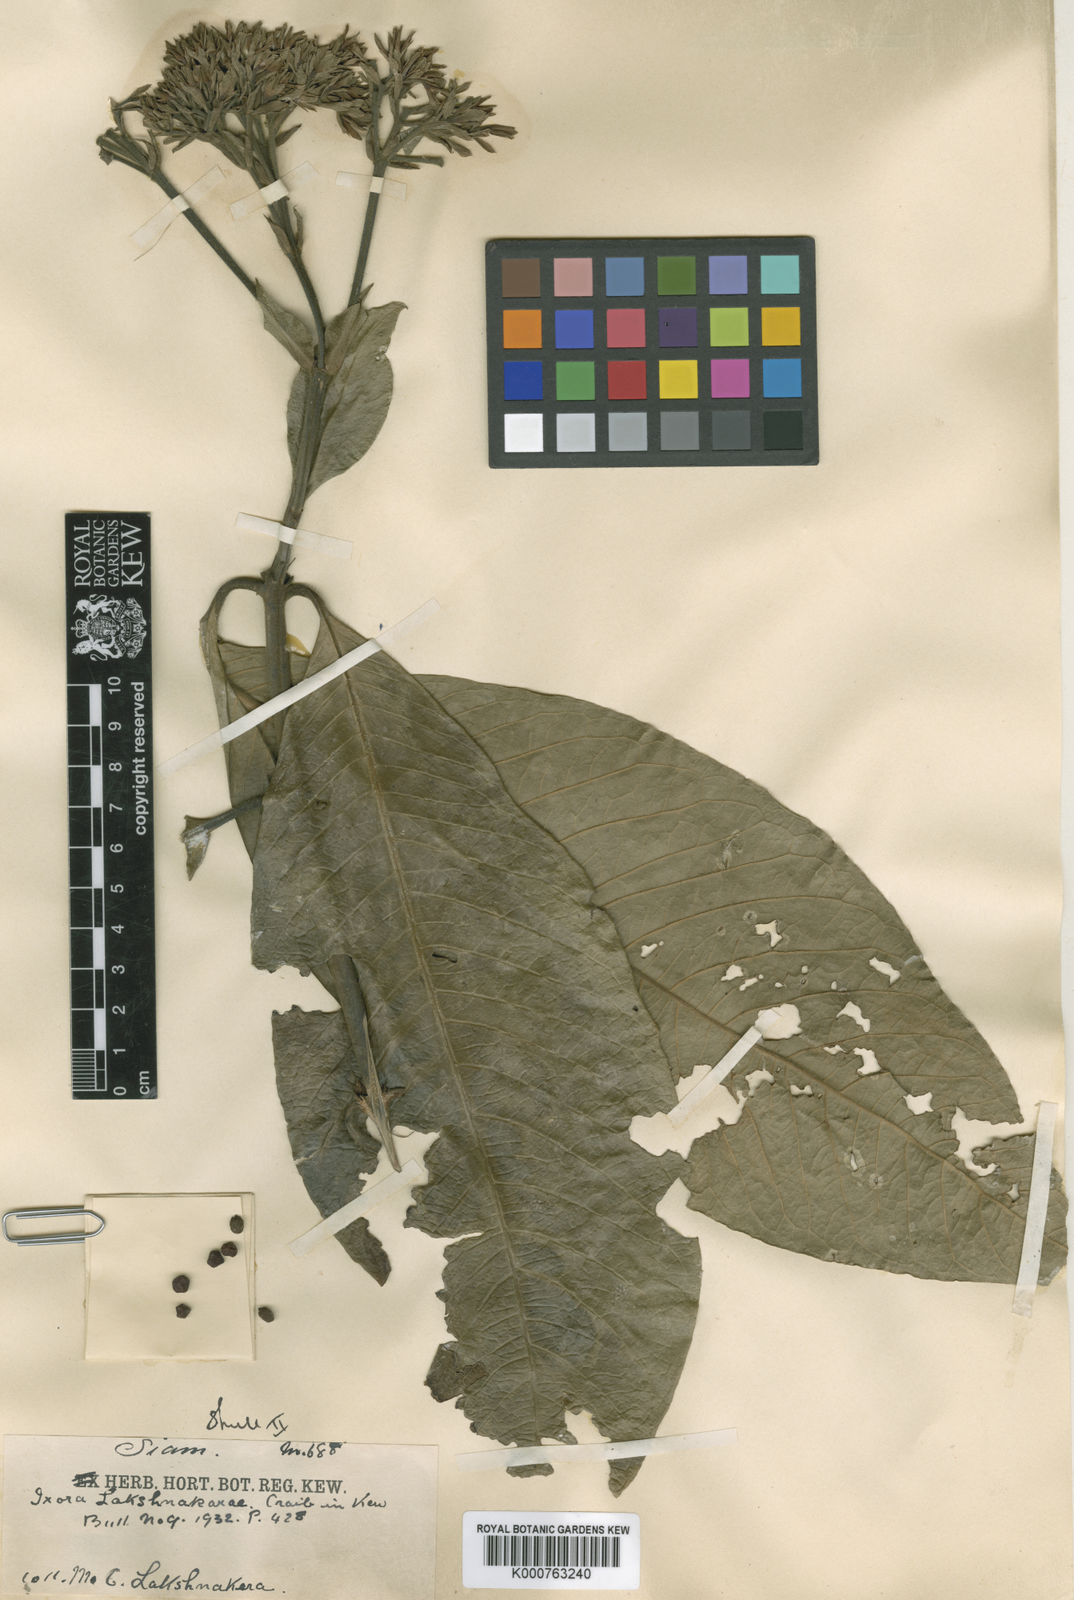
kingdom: Plantae
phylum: Tracheophyta
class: Magnoliopsida
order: Gentianales
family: Rubiaceae
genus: Ixora
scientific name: Ixora lakshnakarae
